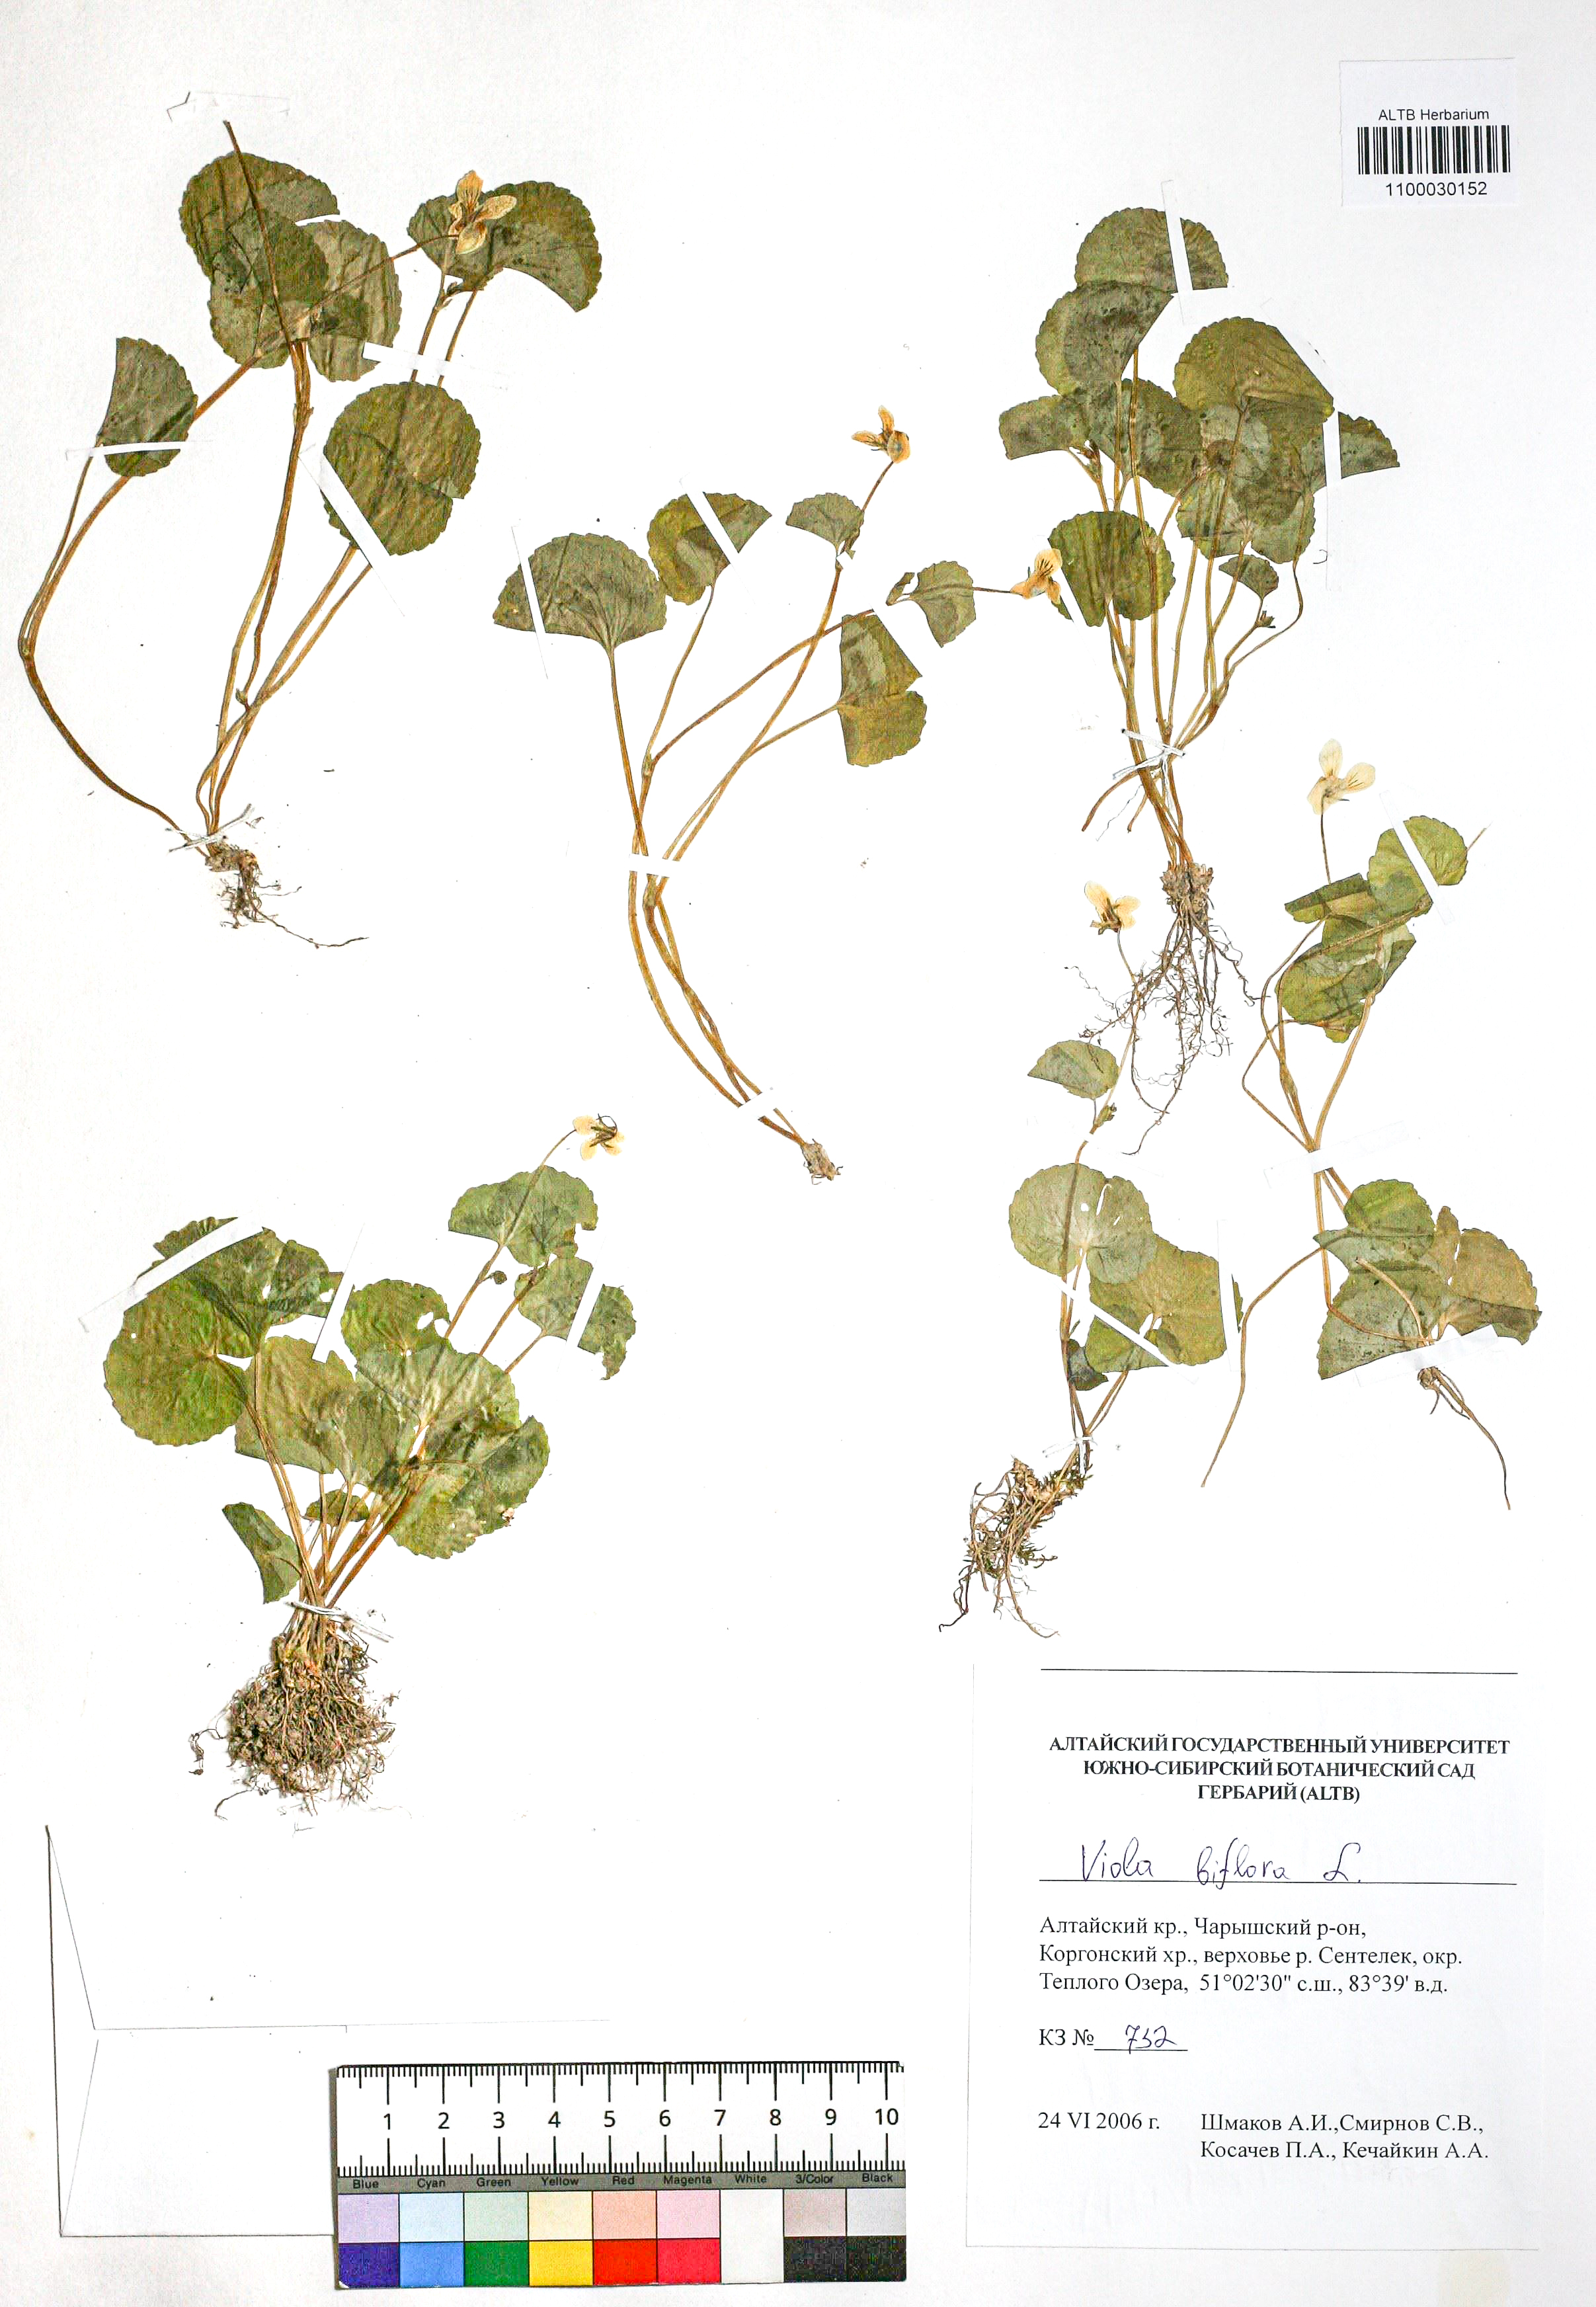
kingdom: Plantae
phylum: Tracheophyta
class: Magnoliopsida
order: Malpighiales
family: Violaceae
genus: Viola
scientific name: Viola biflora
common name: Alpine yellow violet
